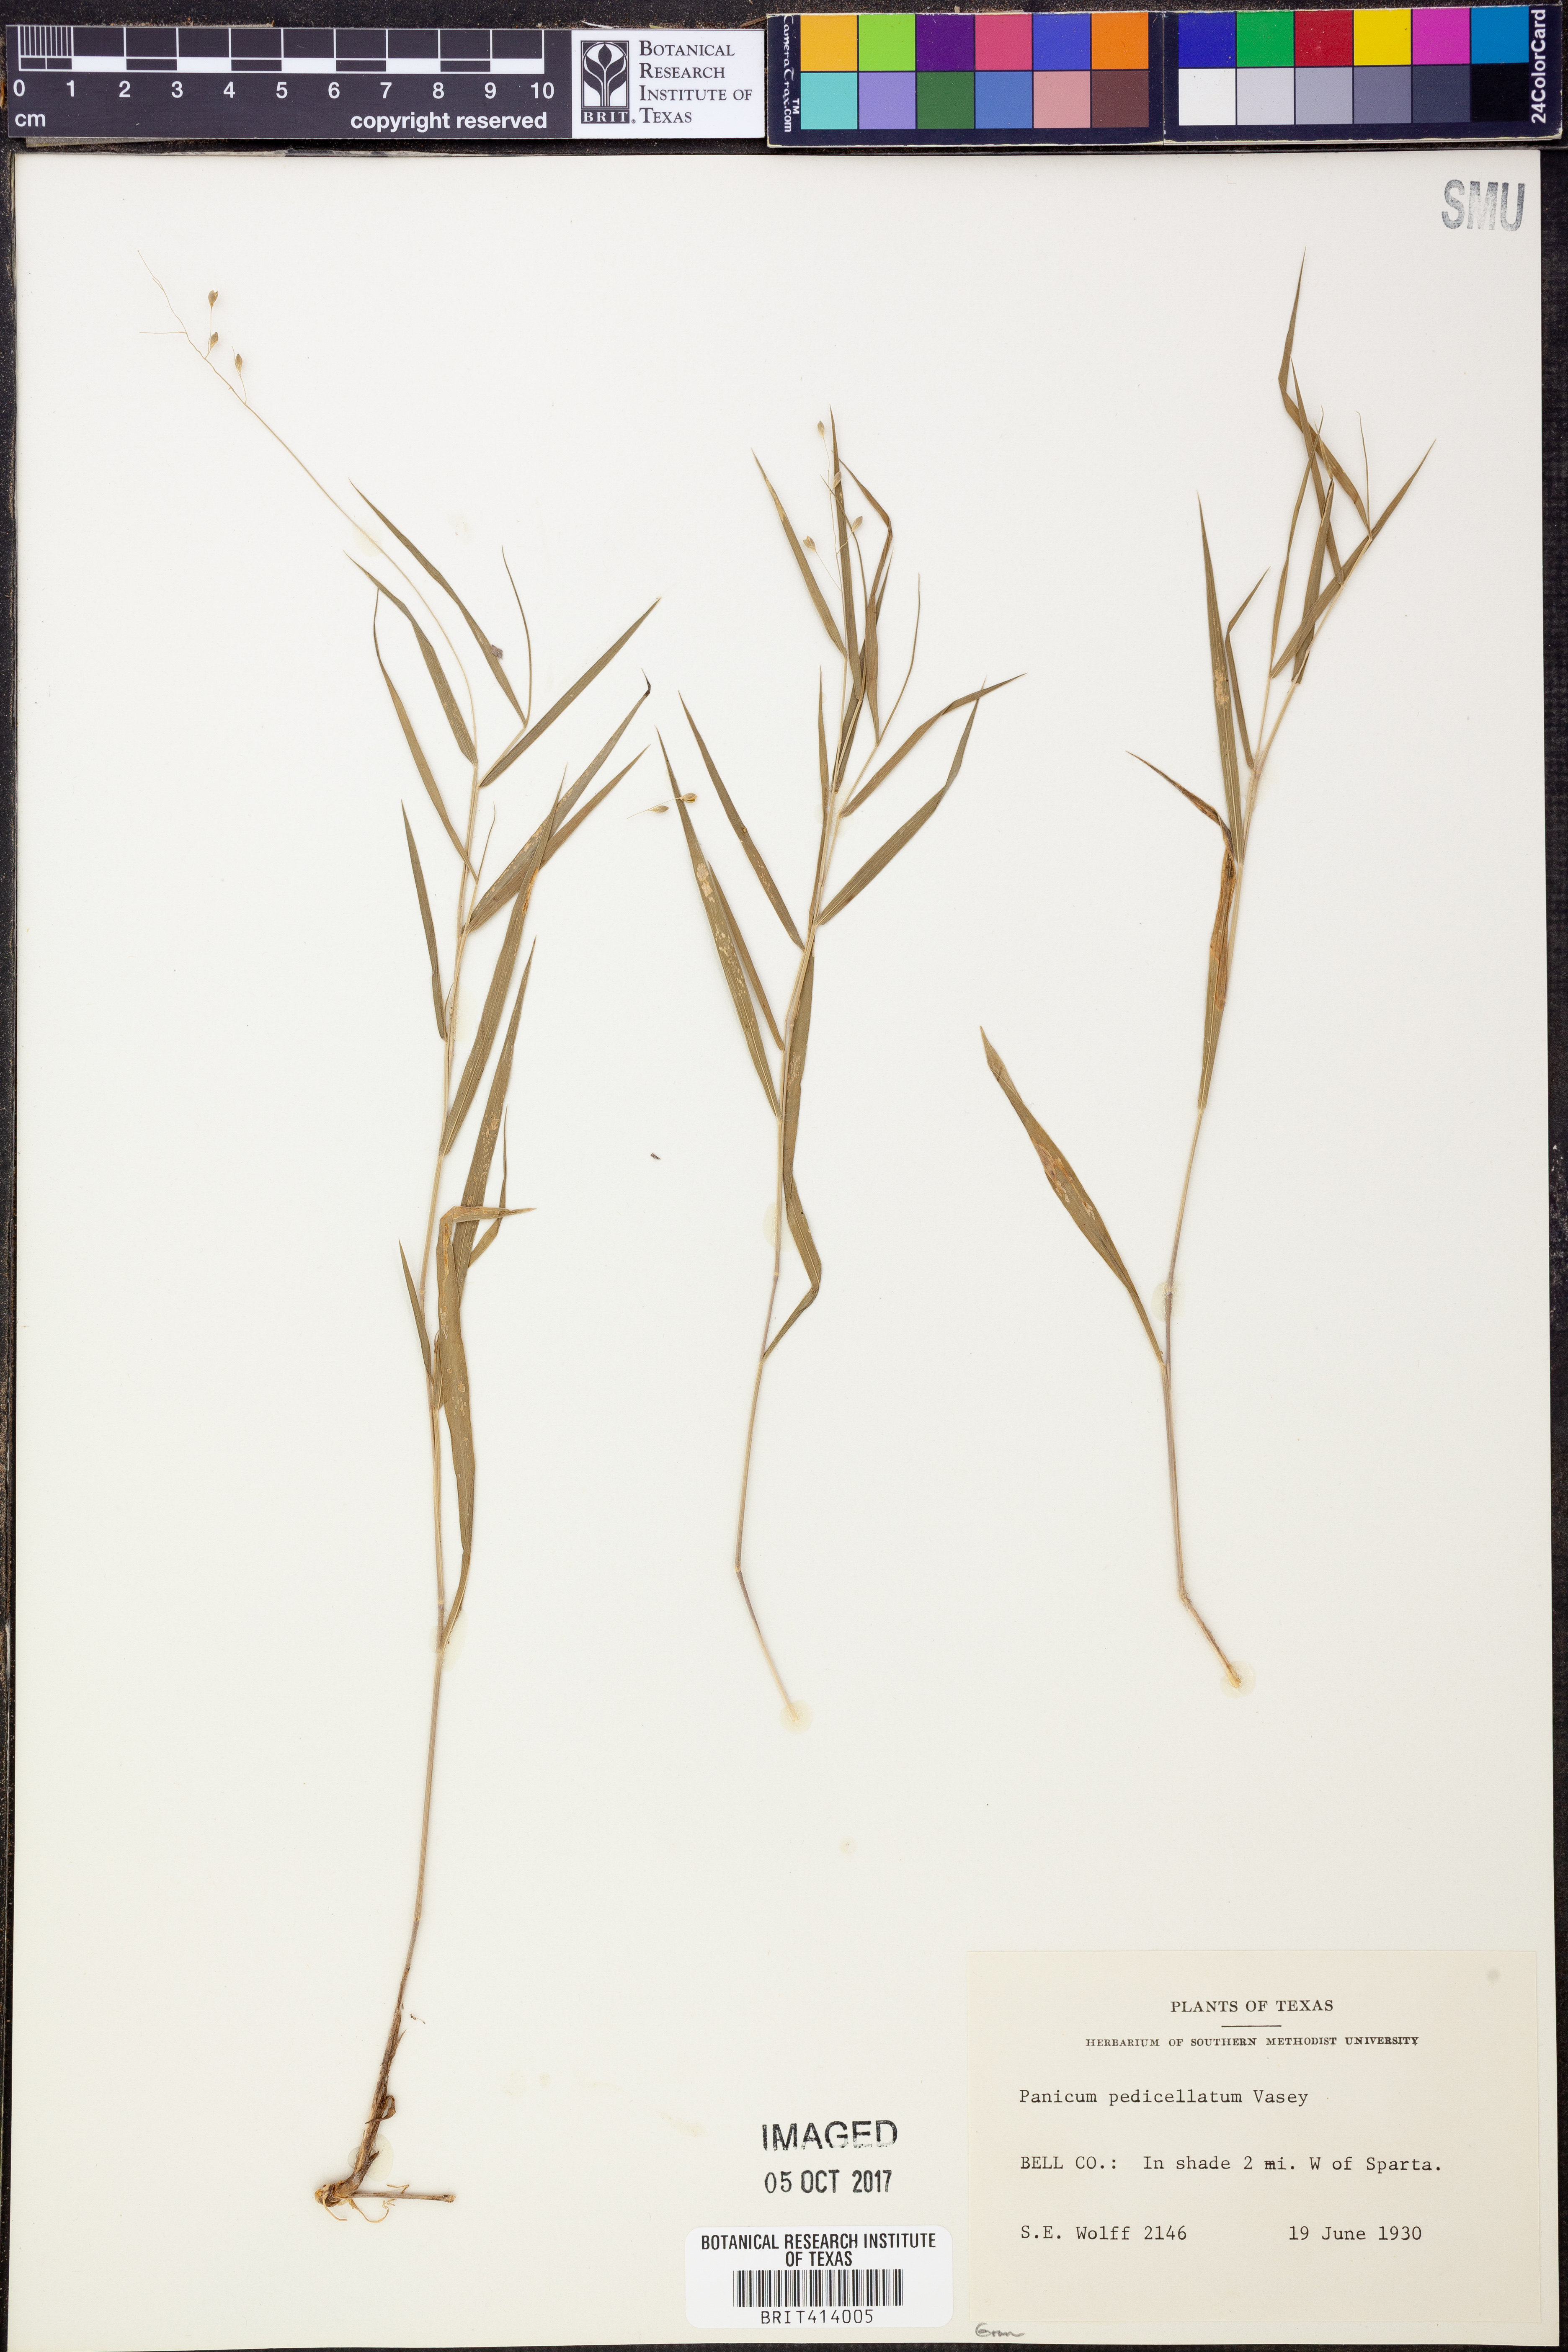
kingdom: Plantae
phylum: Tracheophyta
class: Liliopsida
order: Poales
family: Poaceae
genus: Dichanthelium
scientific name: Dichanthelium transiens
